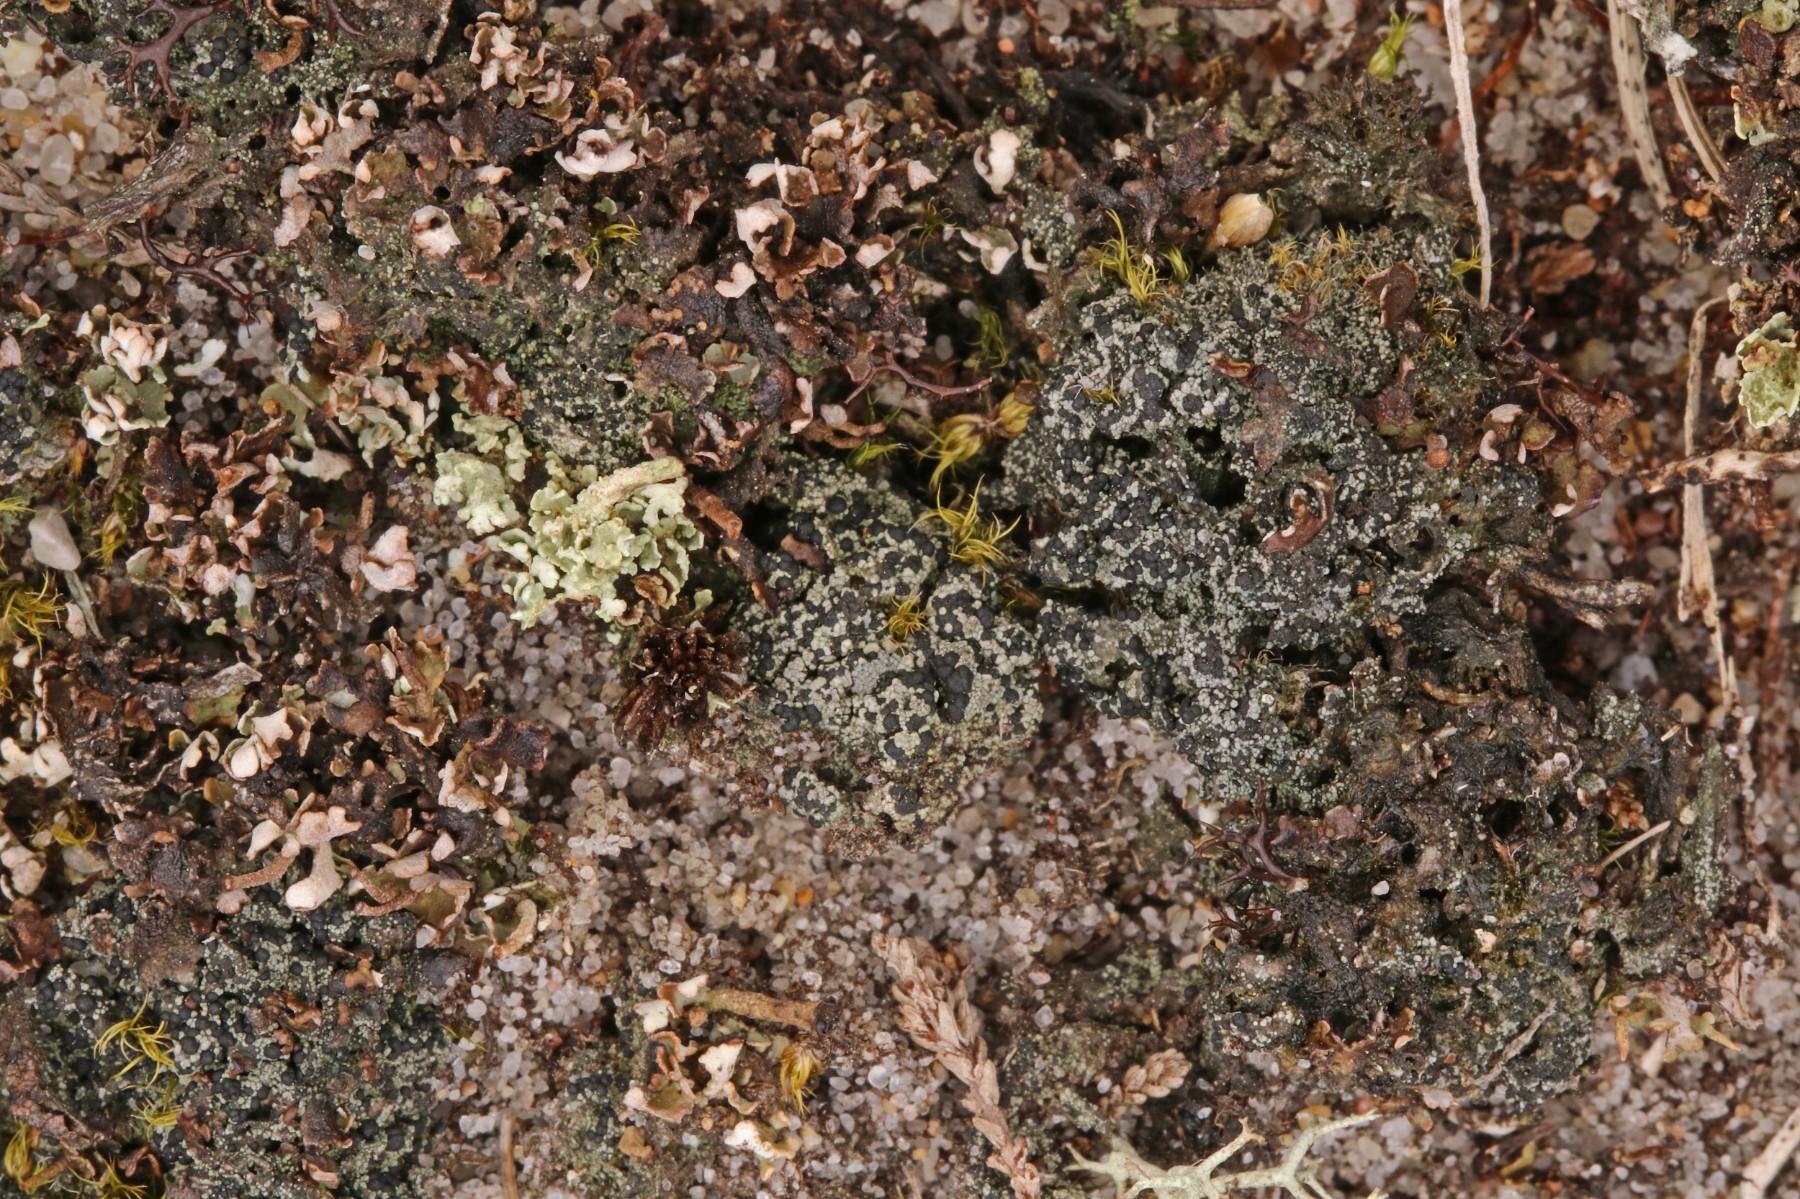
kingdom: Fungi
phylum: Ascomycota
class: Lecanoromycetes
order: Lecanorales
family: Byssolomataceae
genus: Micarea
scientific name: Micarea lignaria
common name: tørve-knaplav
